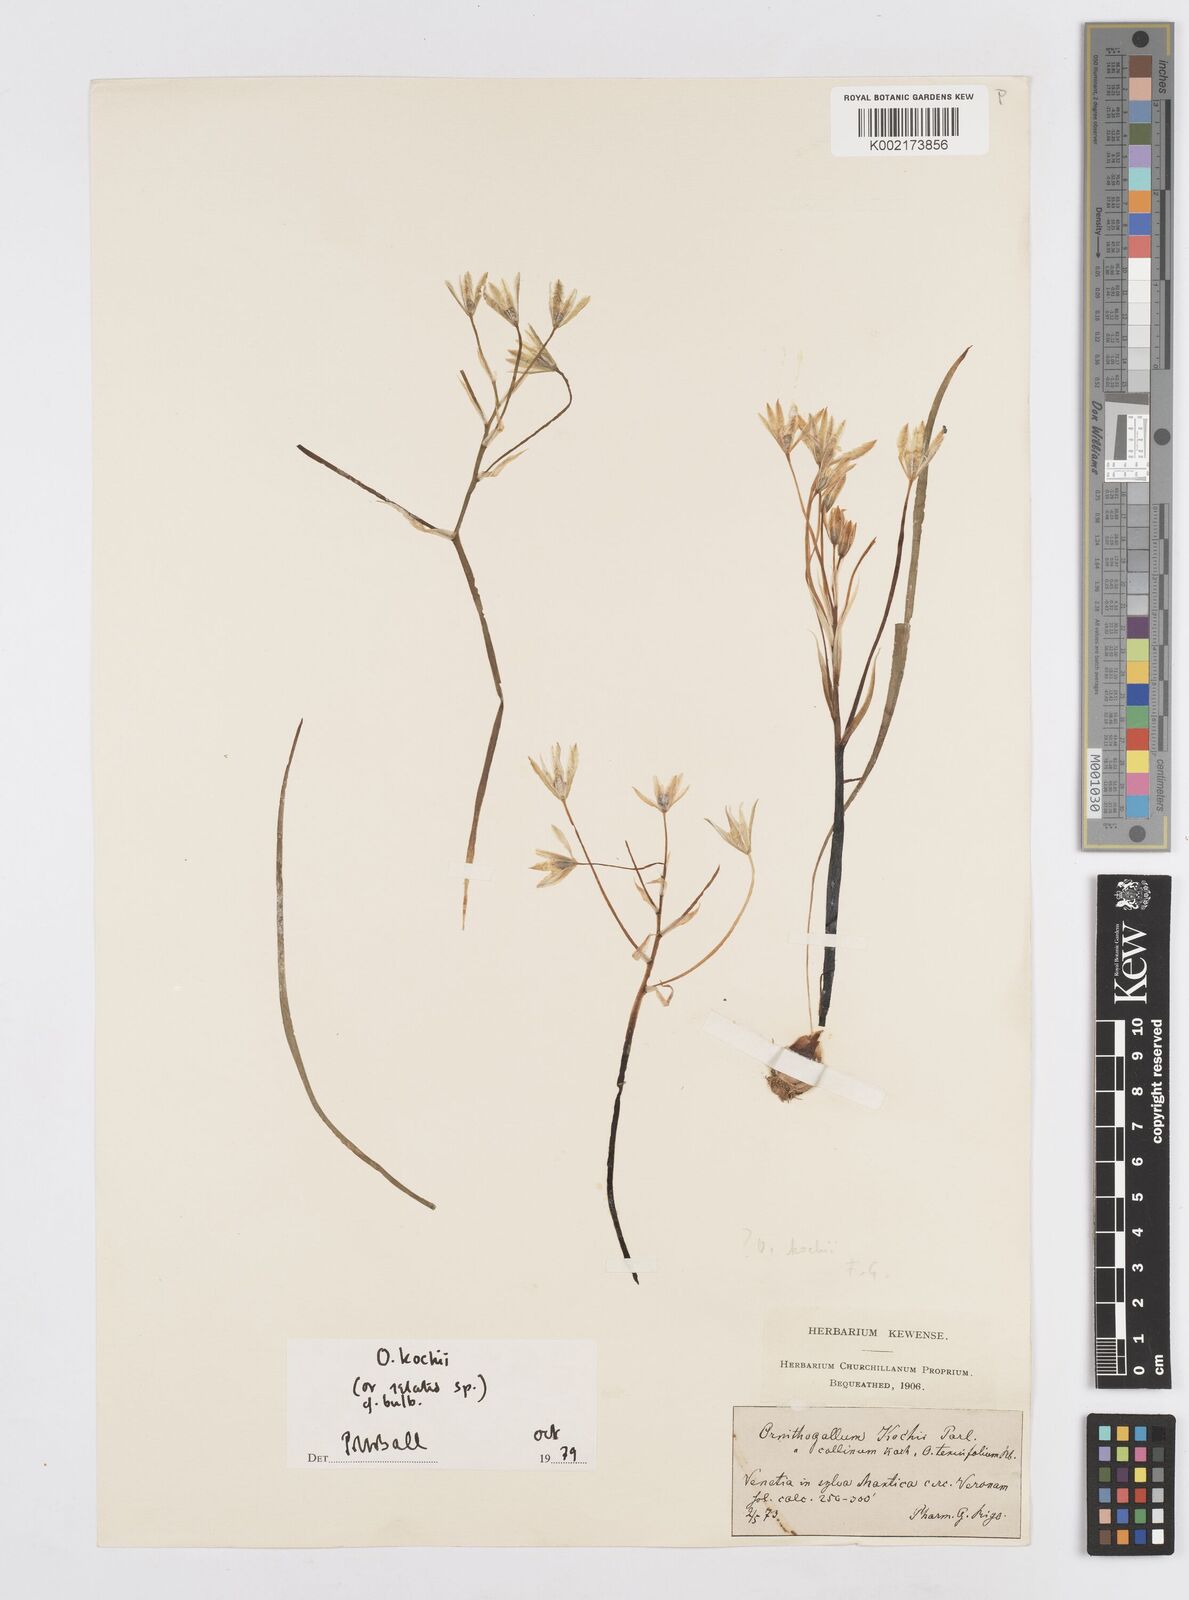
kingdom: Plantae
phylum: Tracheophyta
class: Liliopsida
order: Asparagales
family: Asparagaceae
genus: Ornithogalum
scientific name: Ornithogalum orthophyllum
